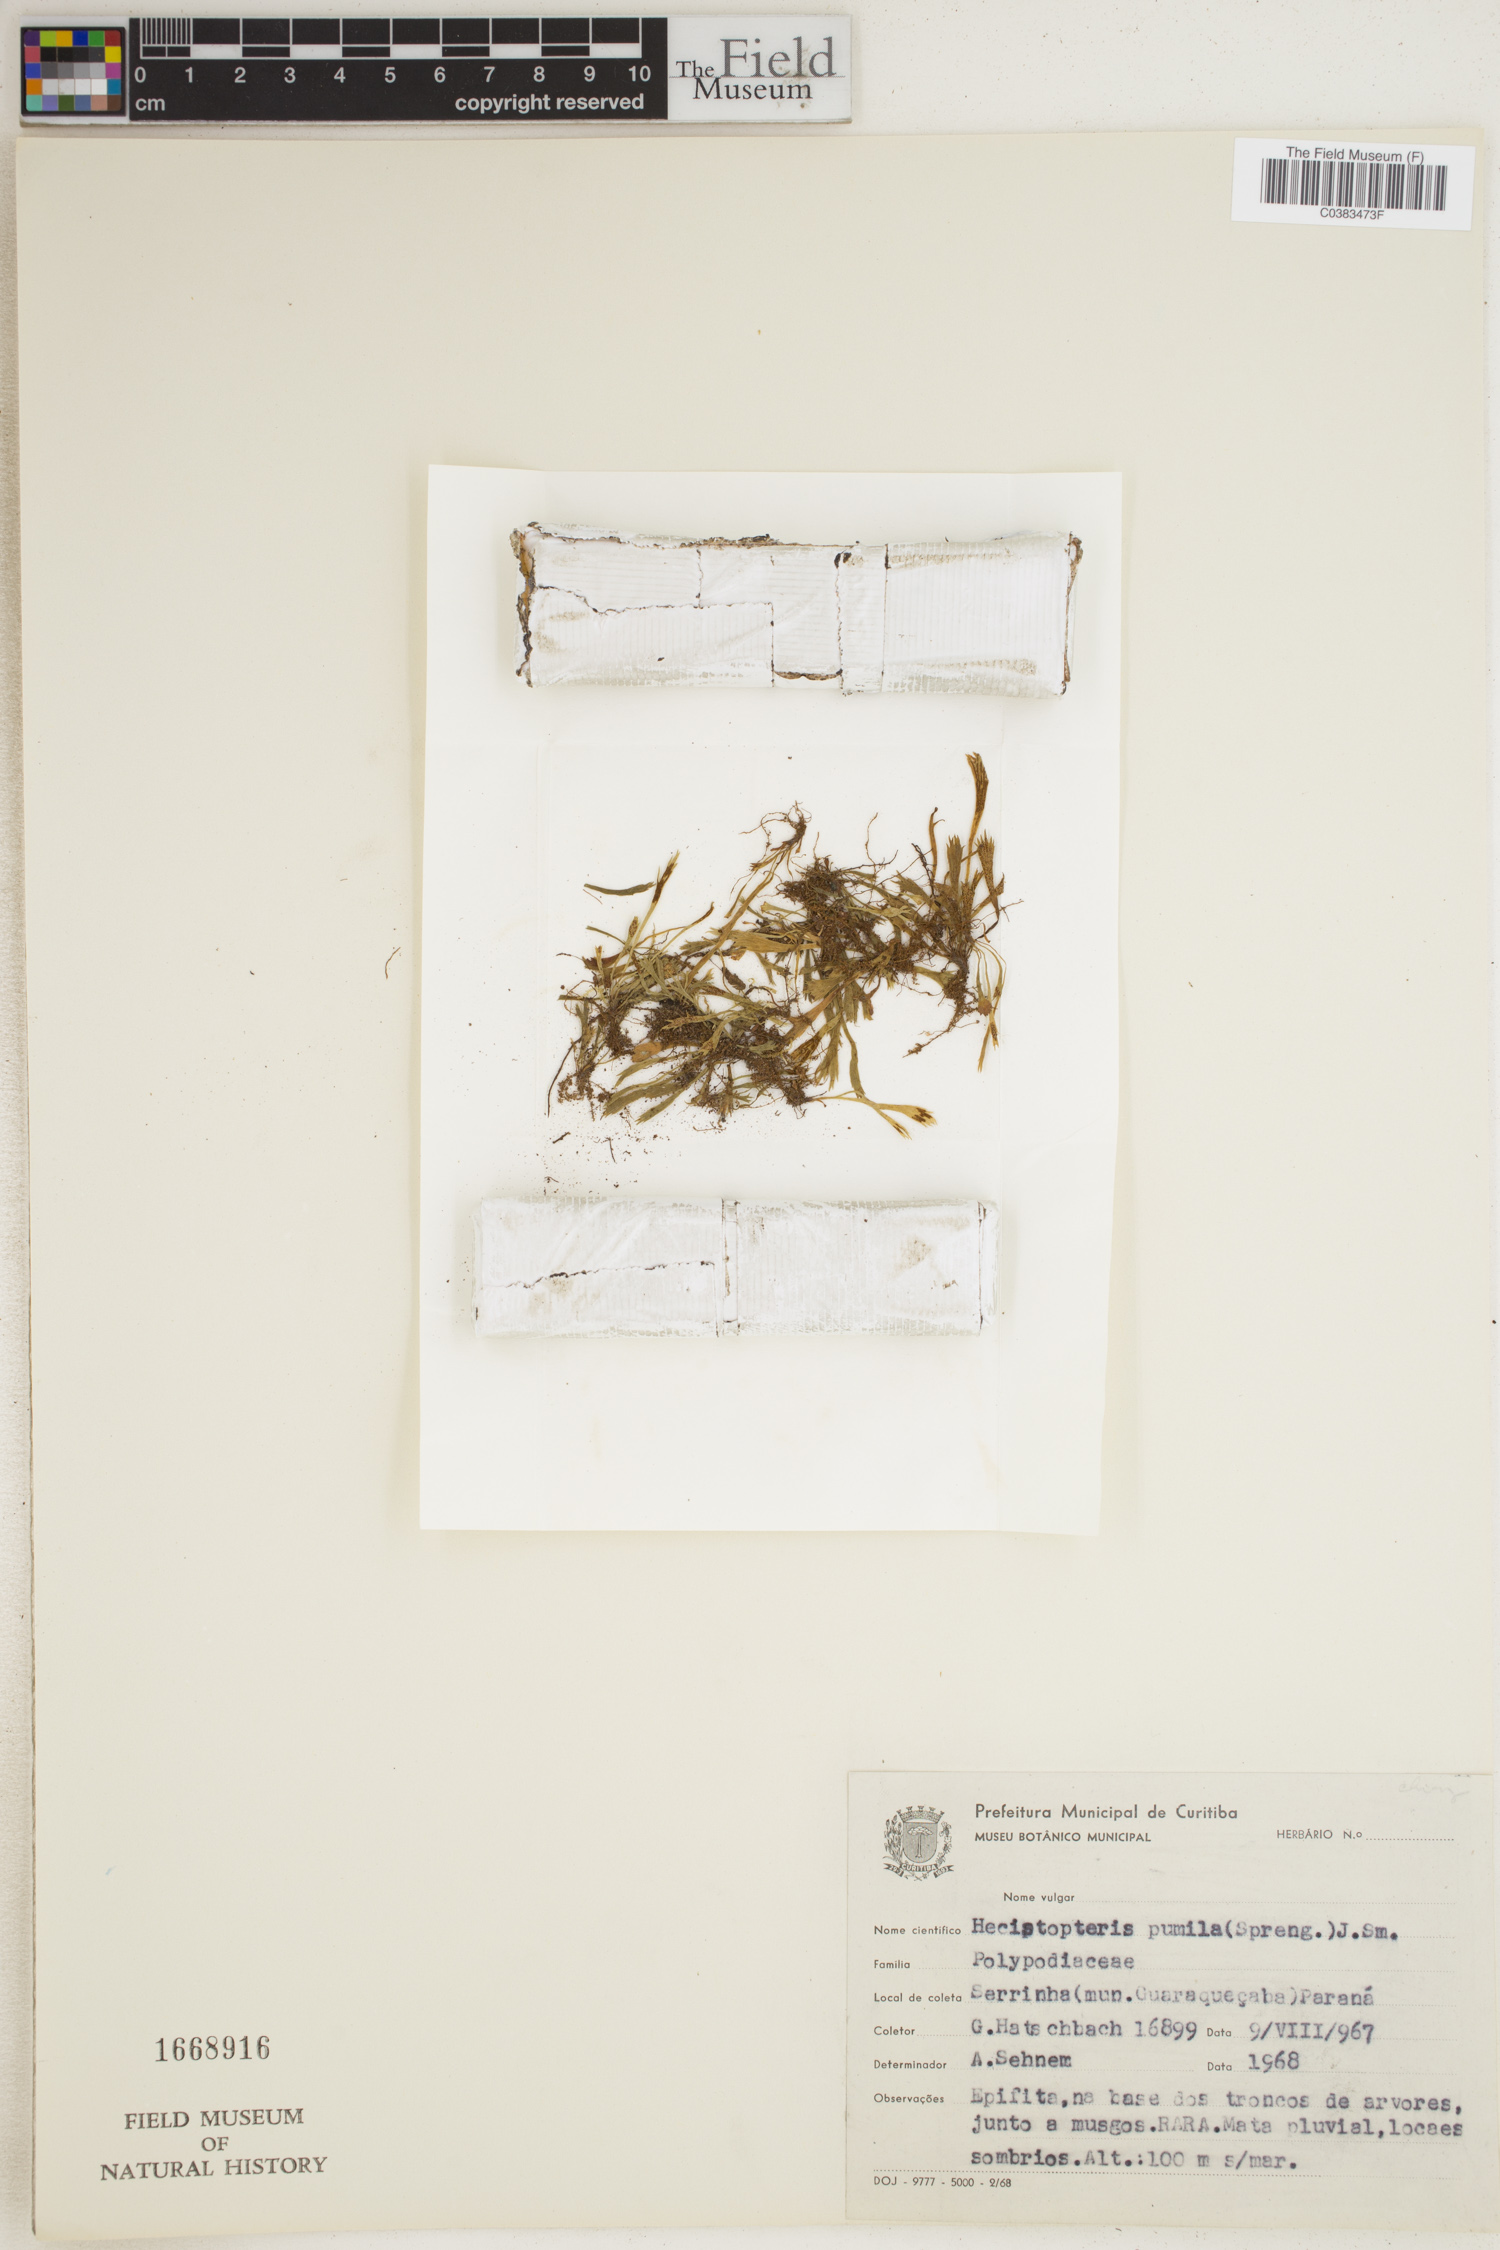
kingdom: Plantae
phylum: Tracheophyta
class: Polypodiopsida
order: Polypodiales
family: Pteridaceae
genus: Hecistopteris
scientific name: Hecistopteris pumila
